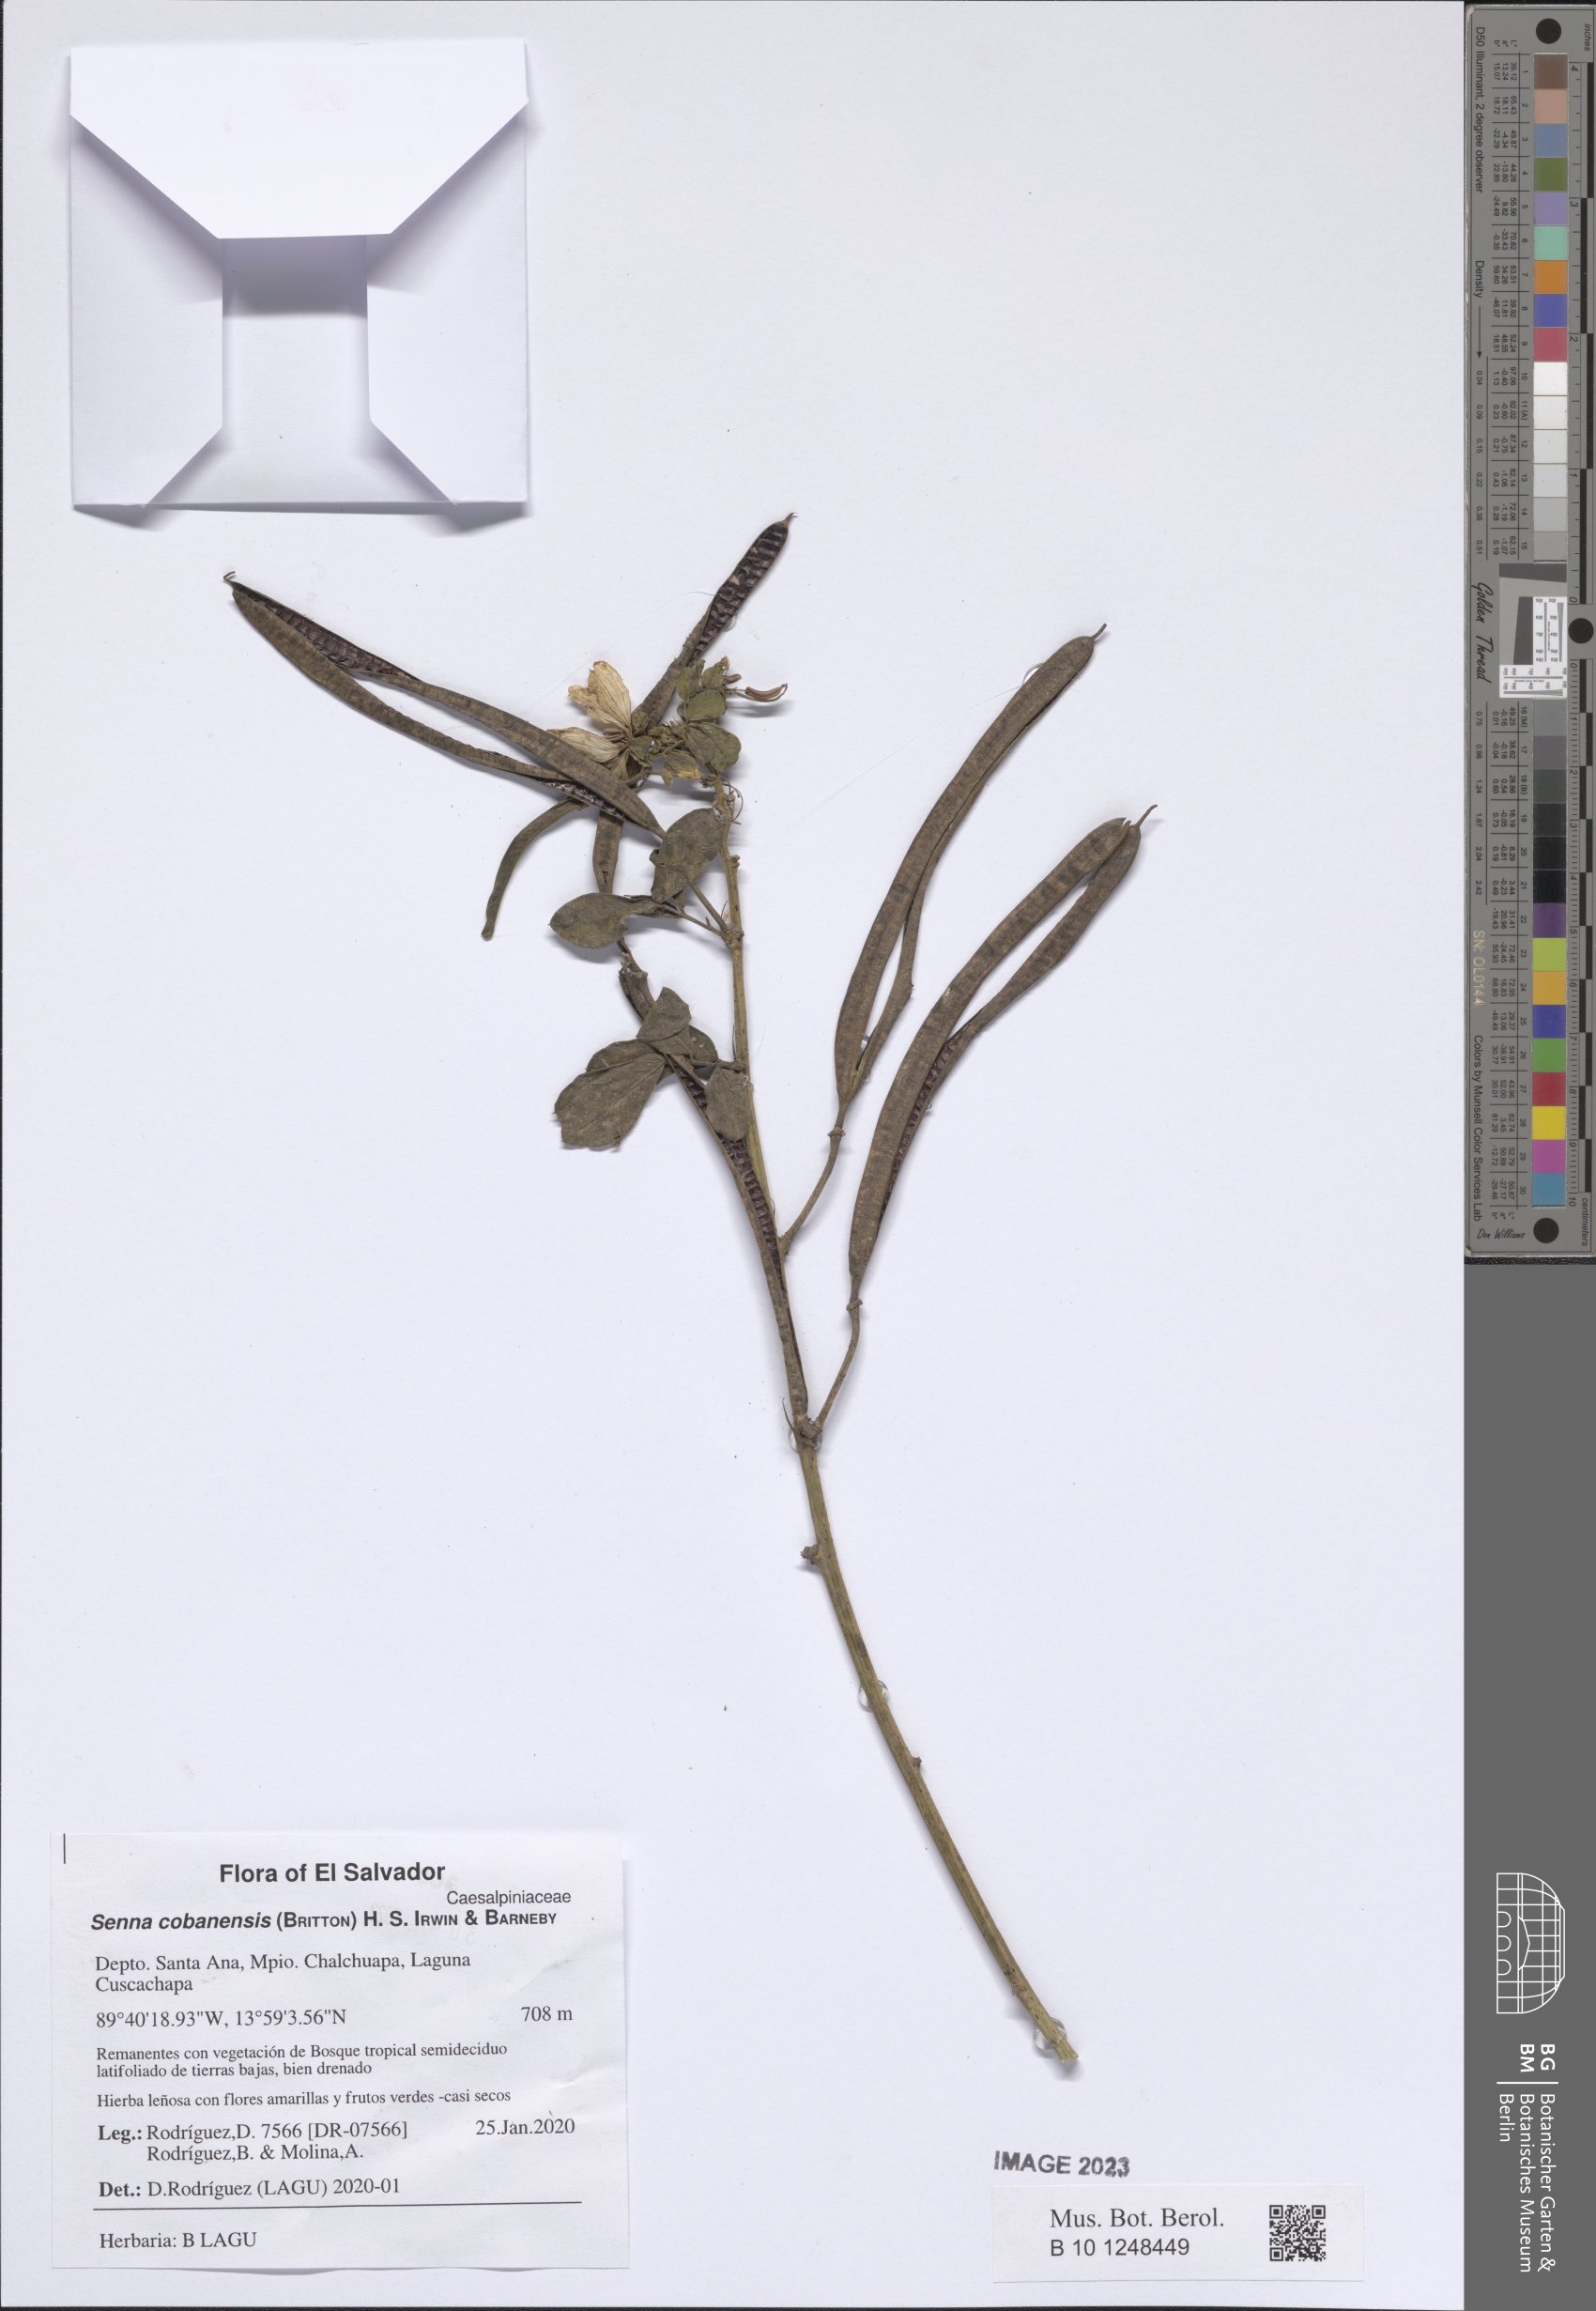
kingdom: Plantae
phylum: Tracheophyta
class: Magnoliopsida
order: Fabales
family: Fabaceae
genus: Senna
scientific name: Senna cobanensis
